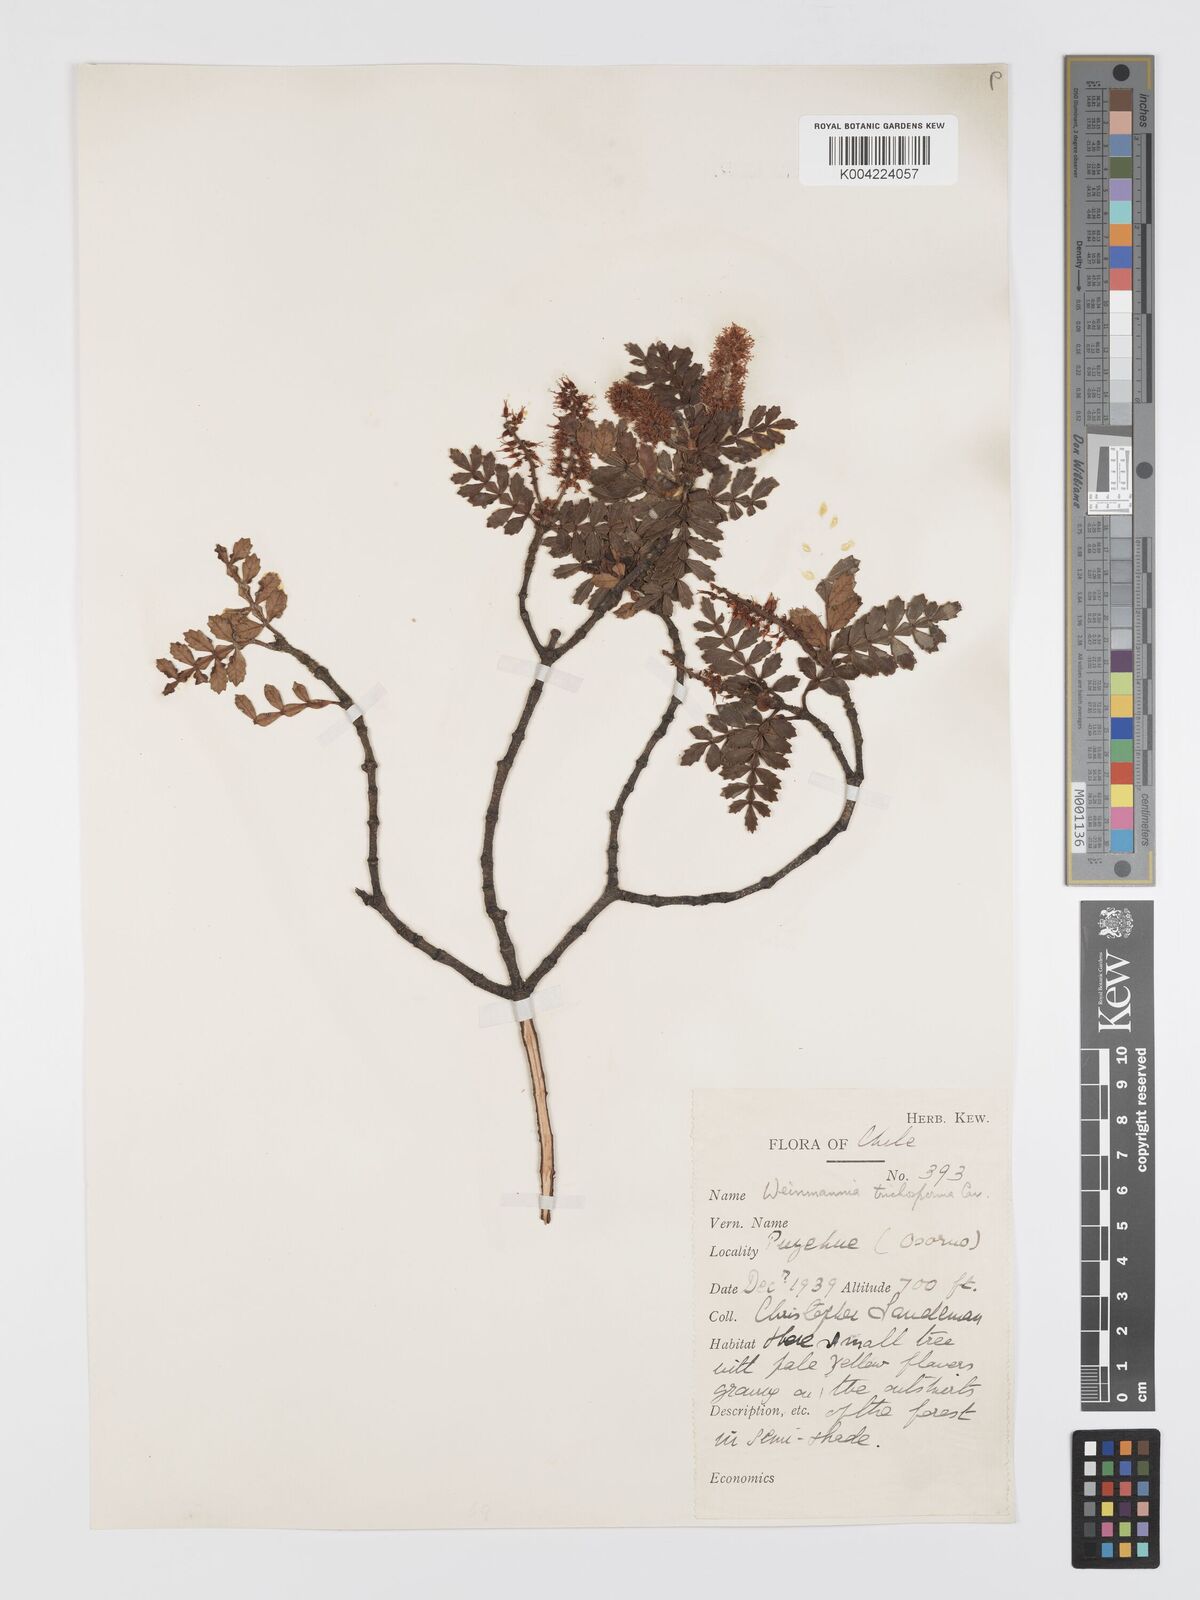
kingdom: Plantae
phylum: Tracheophyta
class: Magnoliopsida
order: Oxalidales
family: Cunoniaceae
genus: Weinmannia
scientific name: Weinmannia trichosperma
